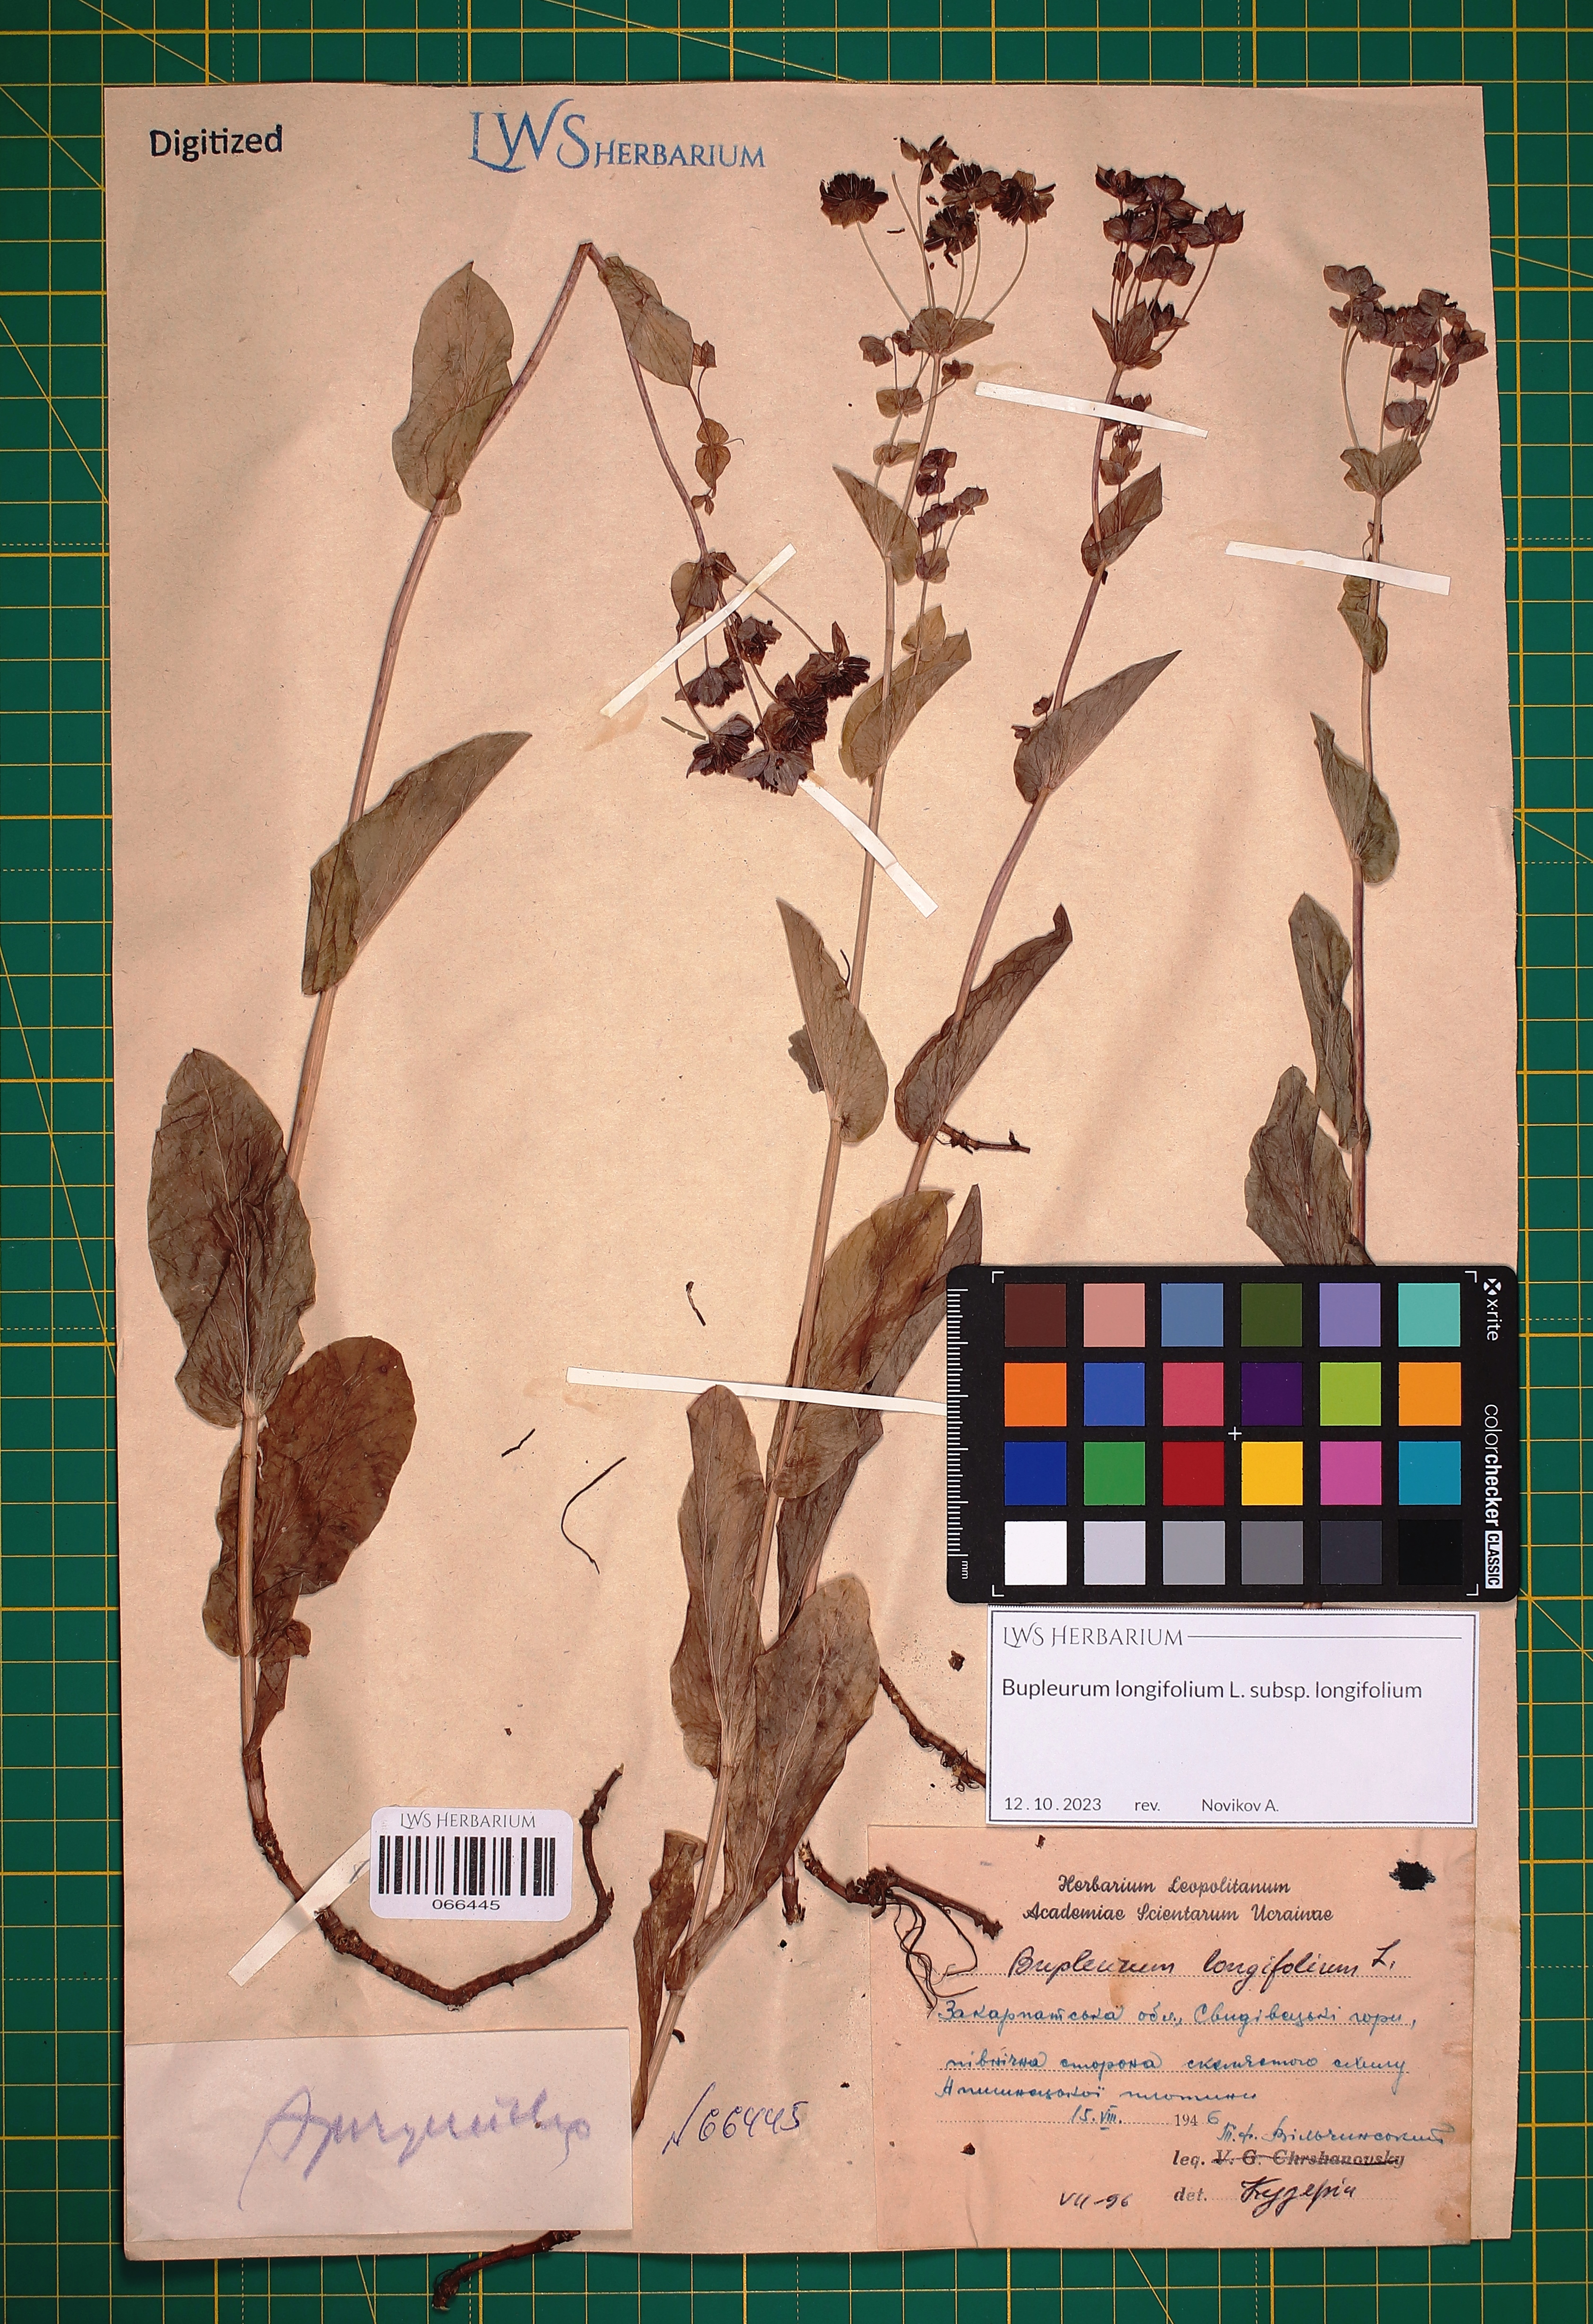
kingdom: Plantae
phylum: Tracheophyta
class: Magnoliopsida
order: Apiales
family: Apiaceae
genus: Bupleurum
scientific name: Bupleurum longifolium
